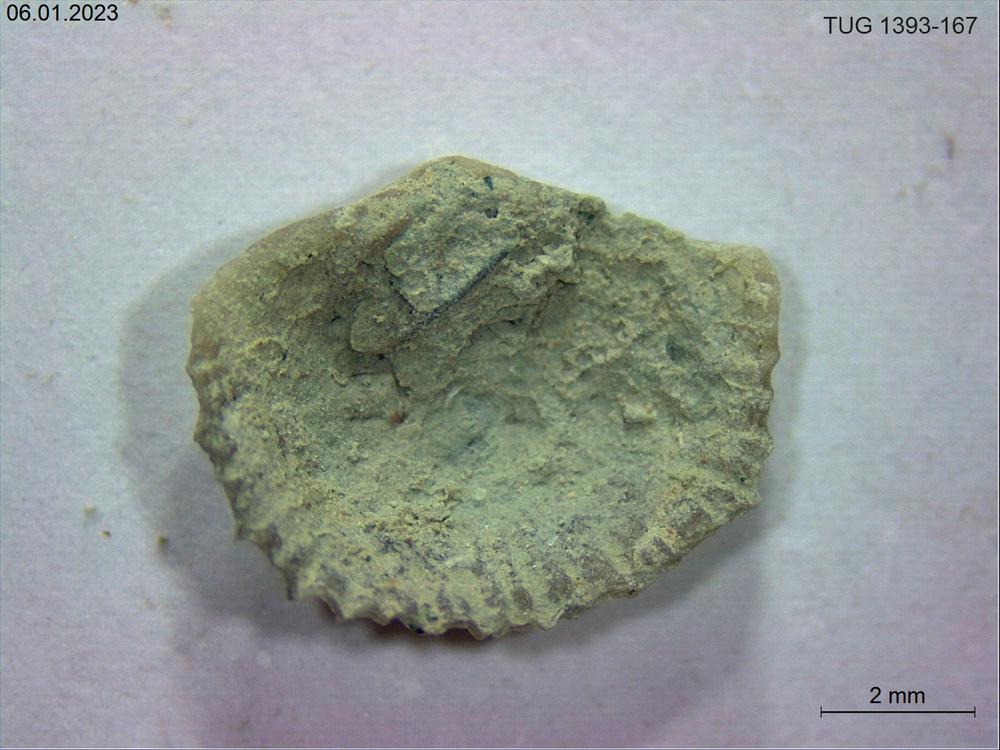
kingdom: Animalia
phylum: Brachiopoda
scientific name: Brachiopoda
